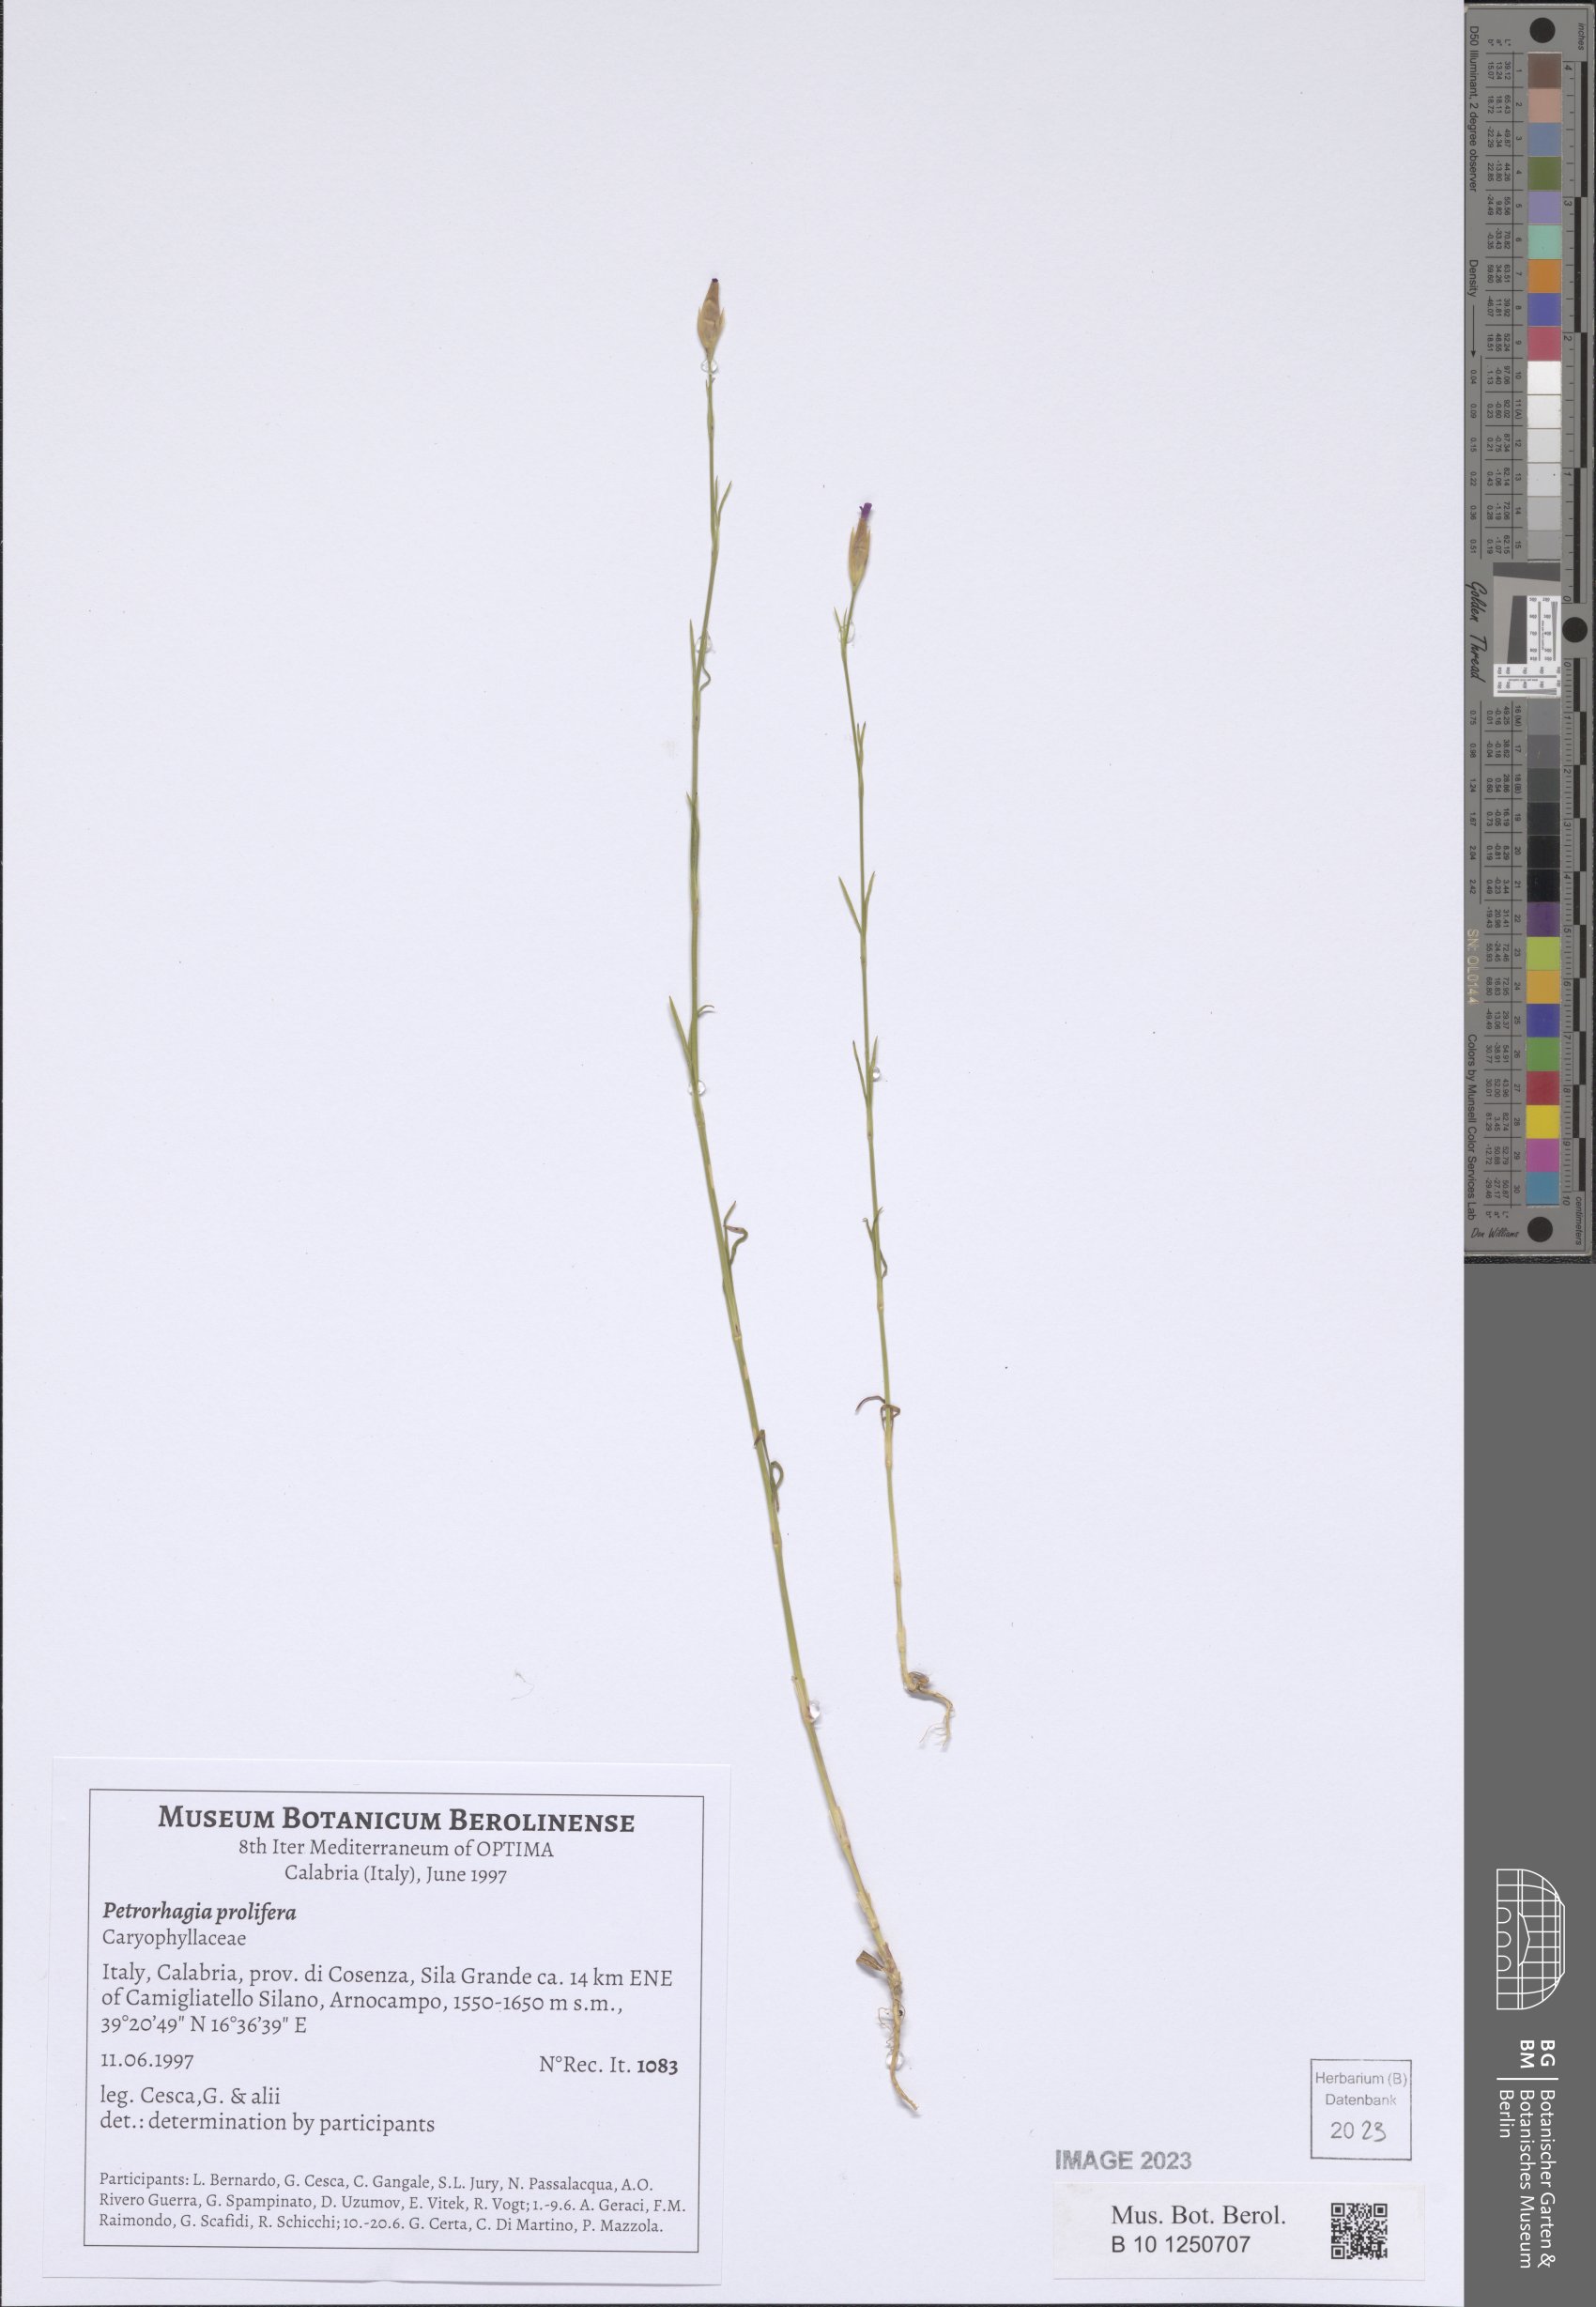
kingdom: Plantae
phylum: Tracheophyta
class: Magnoliopsida
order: Caryophyllales
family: Caryophyllaceae
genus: Petrorhagia
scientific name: Petrorhagia prolifera
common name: Proliferous pink
